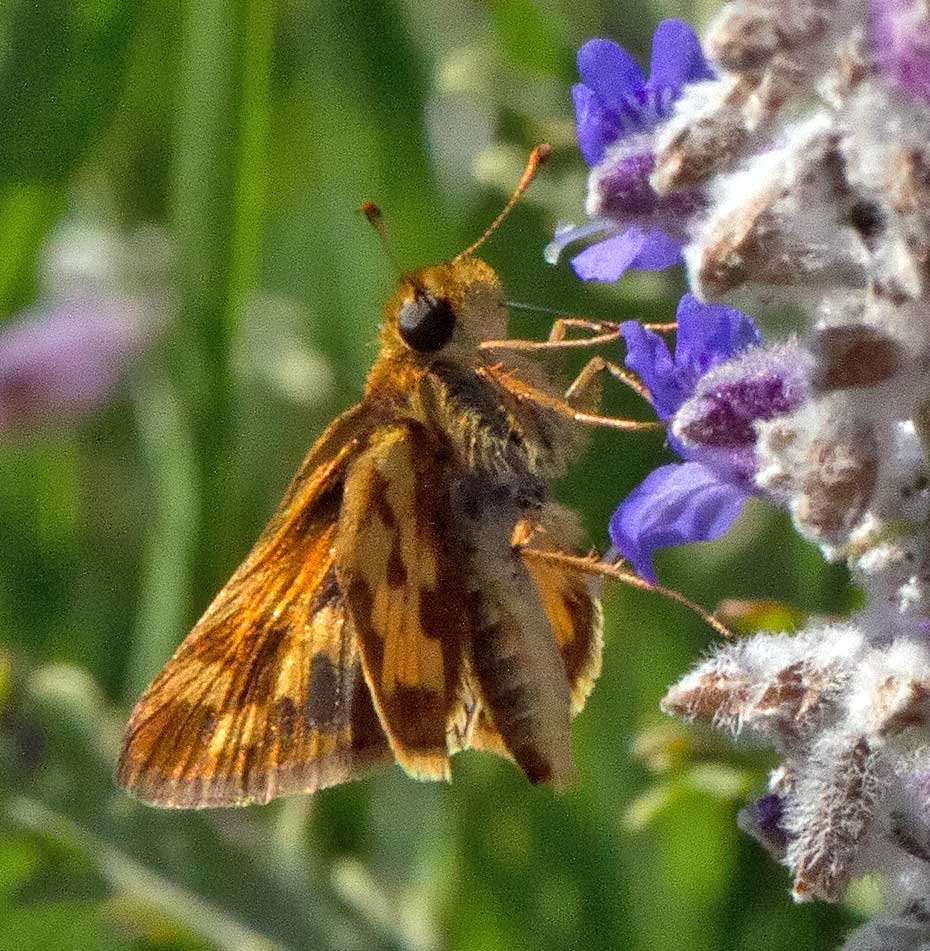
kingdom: Animalia
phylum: Arthropoda
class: Insecta
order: Lepidoptera
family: Hesperiidae
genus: Polites
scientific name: Polites coras
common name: Peck's Skipper
